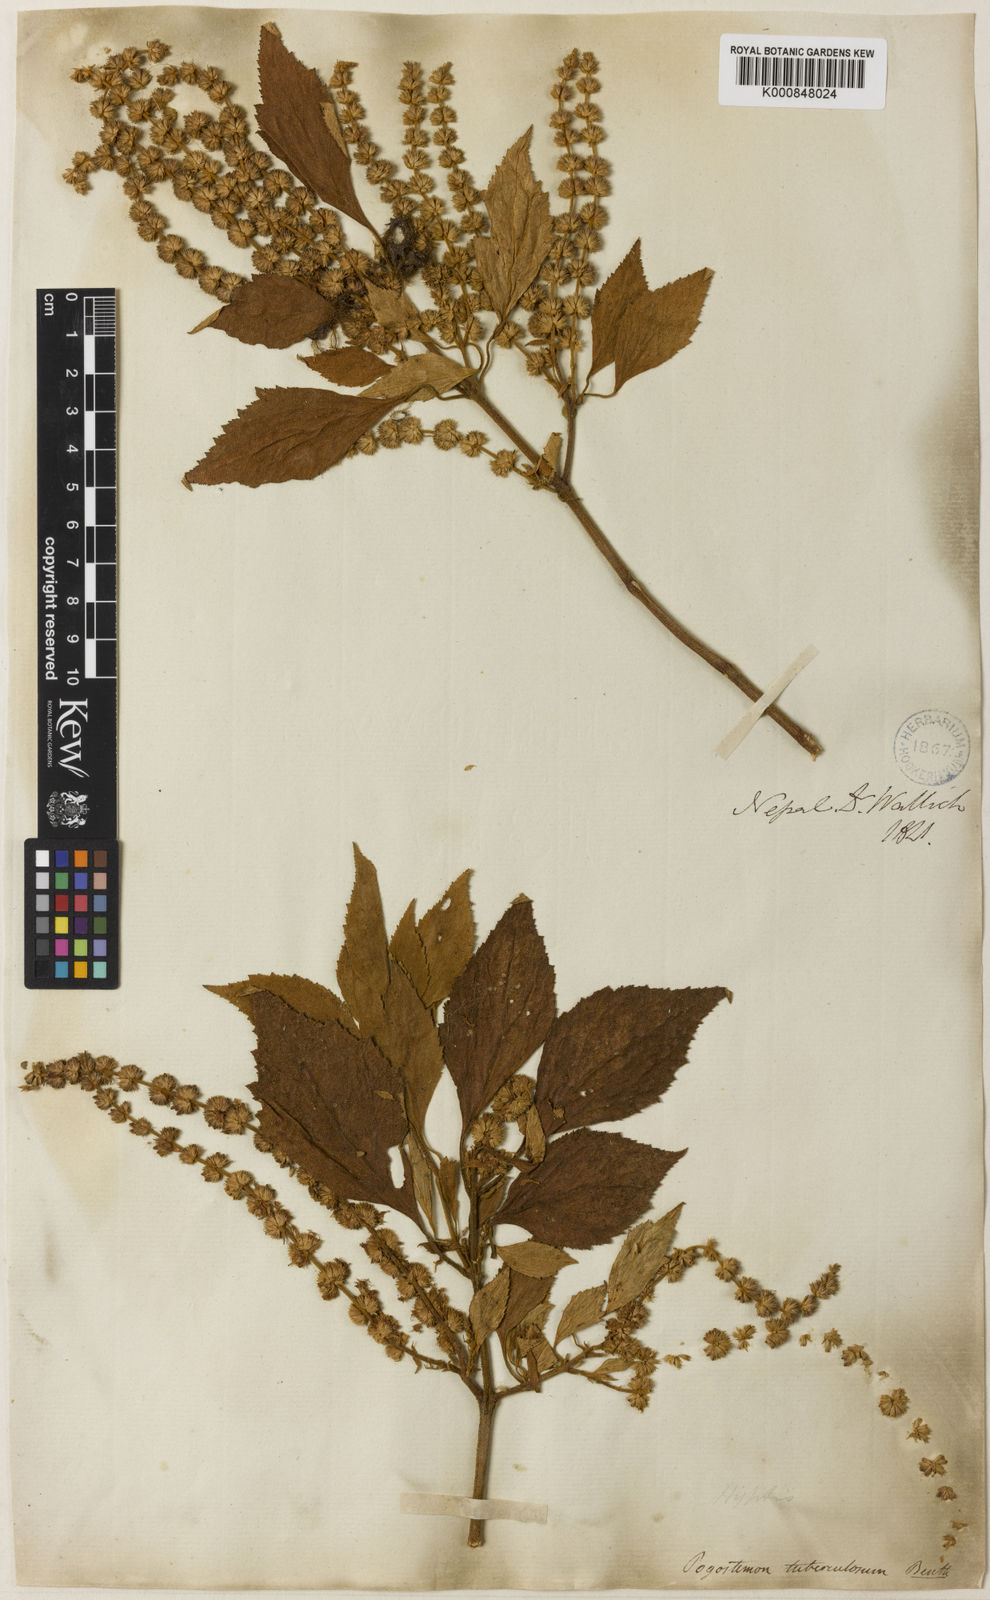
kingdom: Plantae
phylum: Tracheophyta
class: Magnoliopsida
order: Lamiales
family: Lamiaceae
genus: Pogostemon
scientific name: Pogostemon tuberculosus
